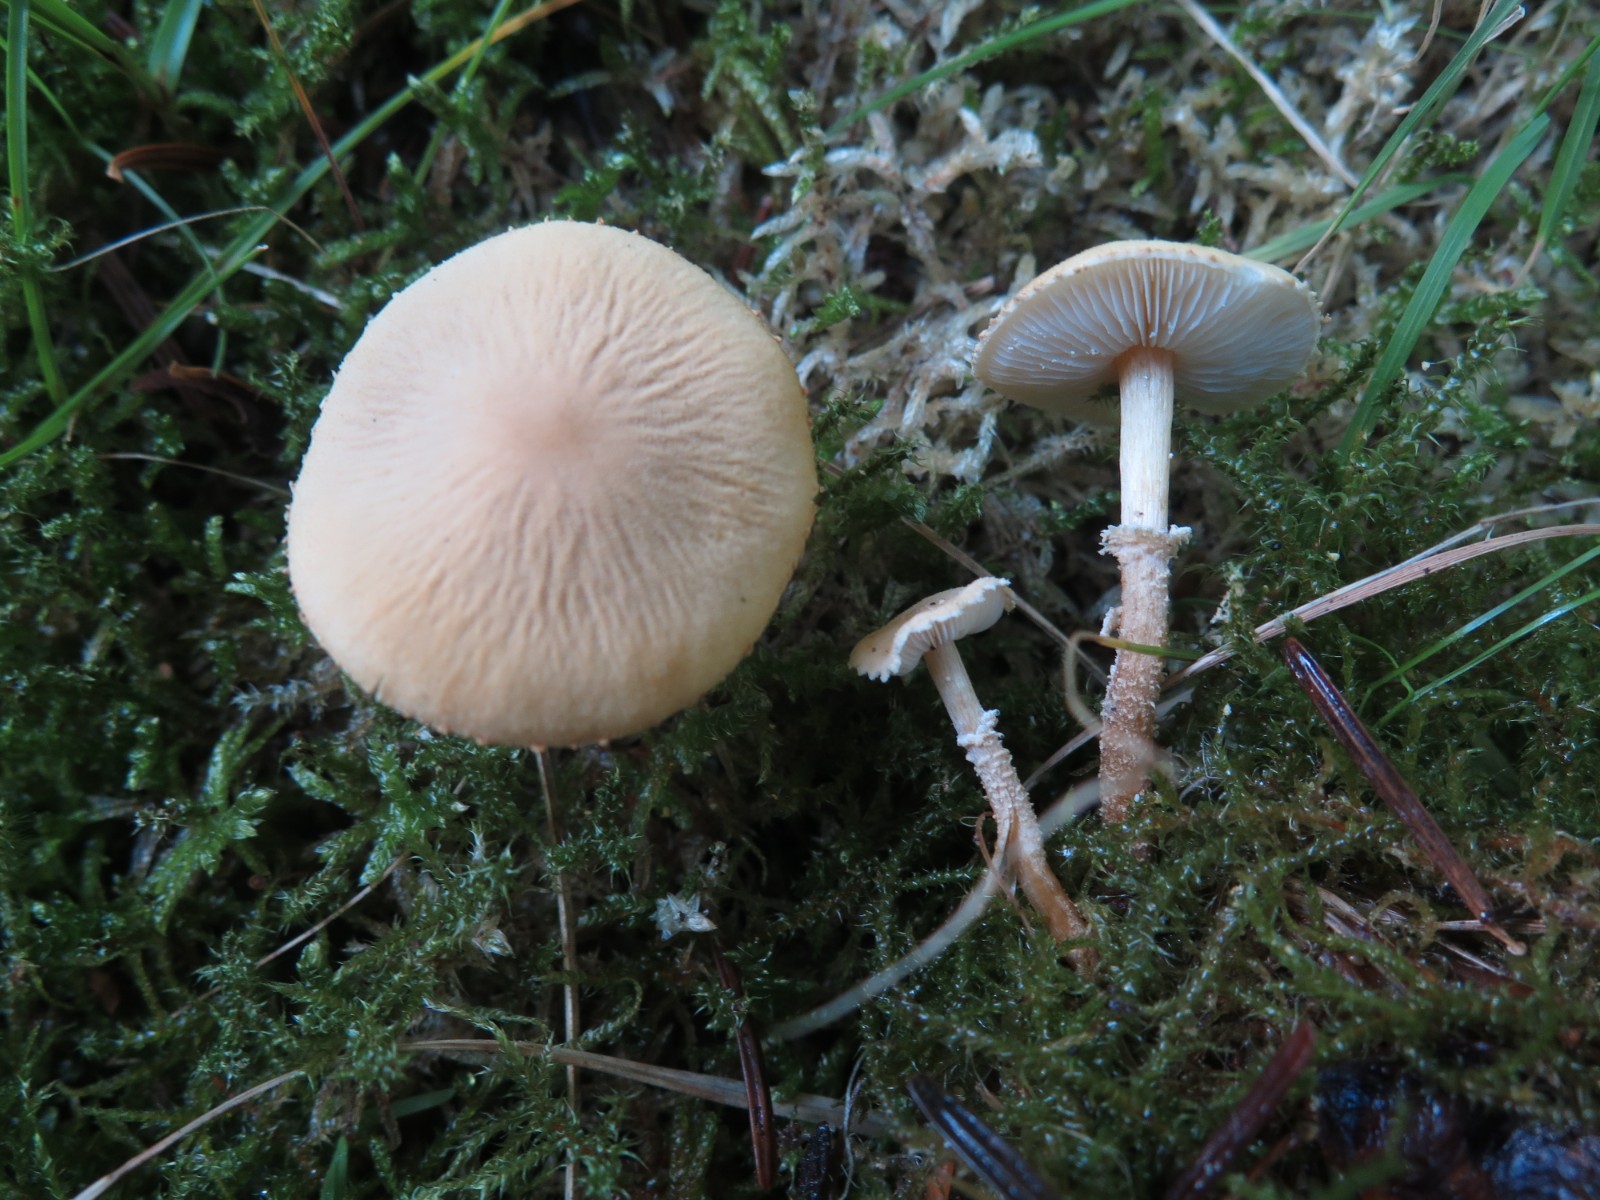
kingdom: Fungi
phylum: Basidiomycota
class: Agaricomycetes
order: Agaricales
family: Tricholomataceae
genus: Cystoderma
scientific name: Cystoderma amianthinum
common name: okkergul grynhat
